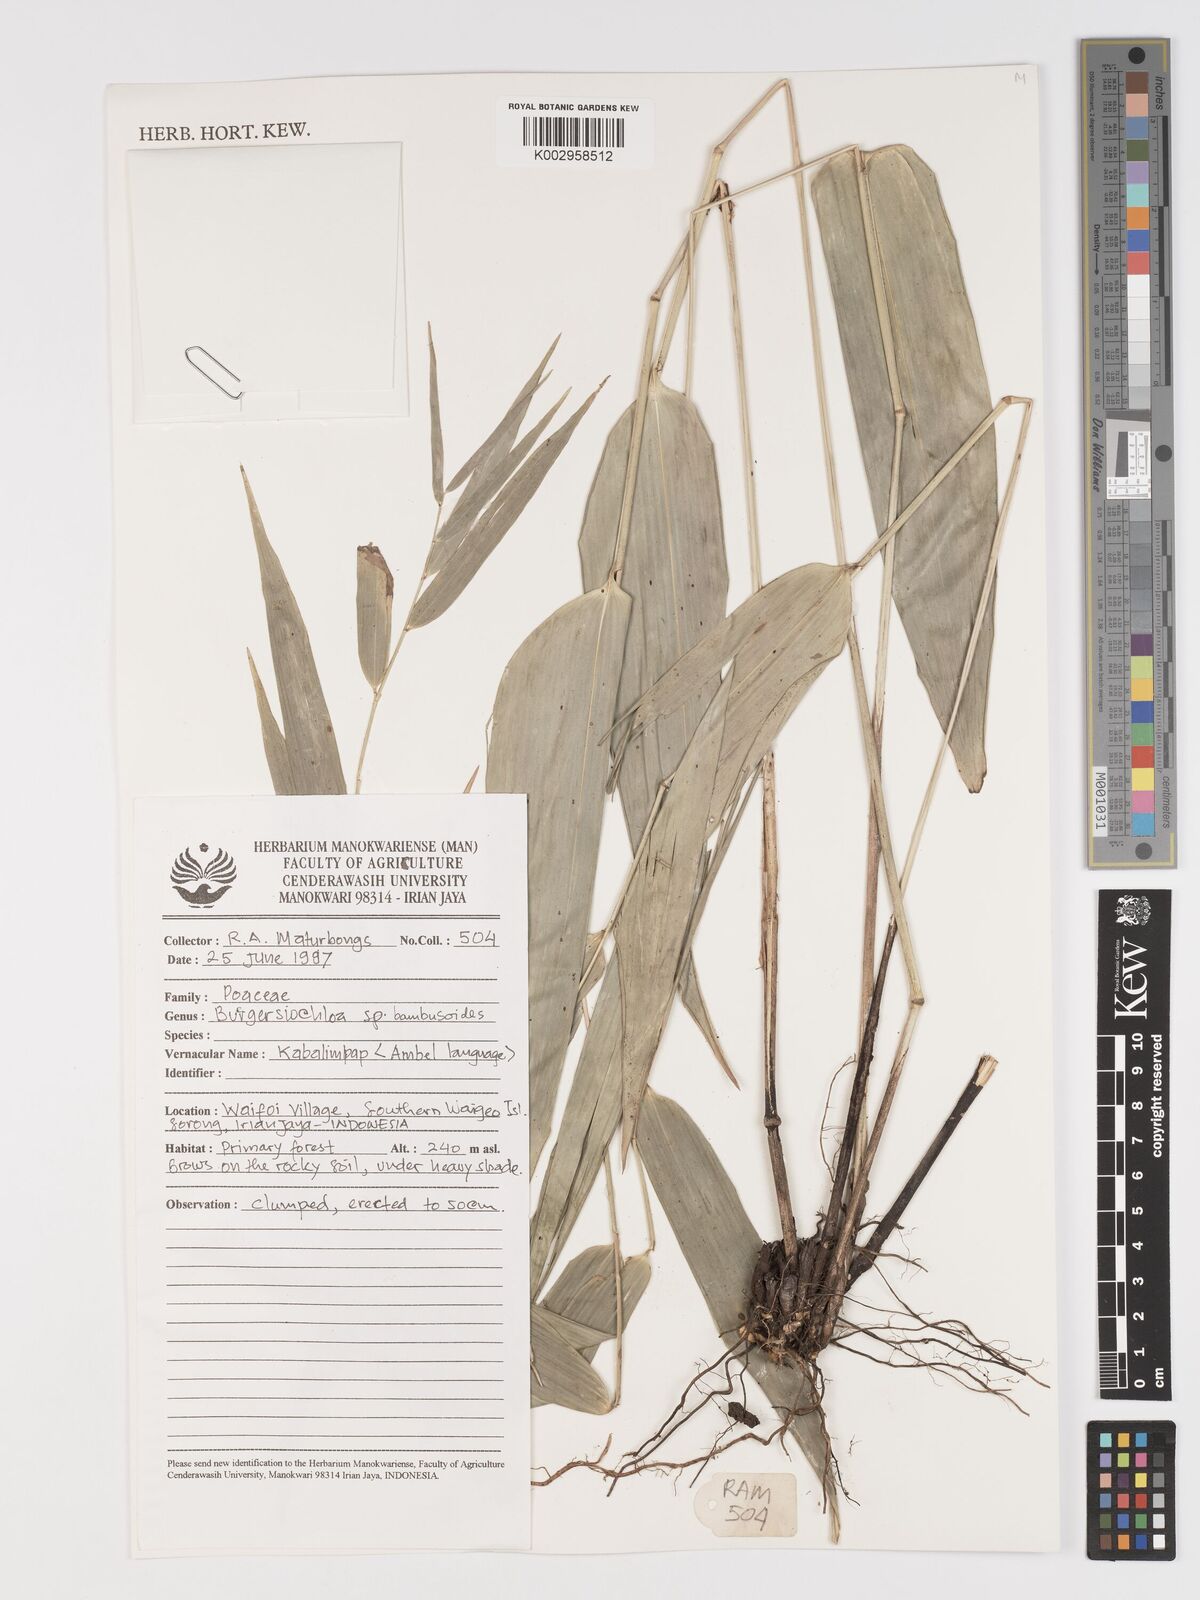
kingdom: Plantae
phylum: Tracheophyta
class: Liliopsida
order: Poales
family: Poaceae
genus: Buergersiochloa
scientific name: Buergersiochloa bambusoides
